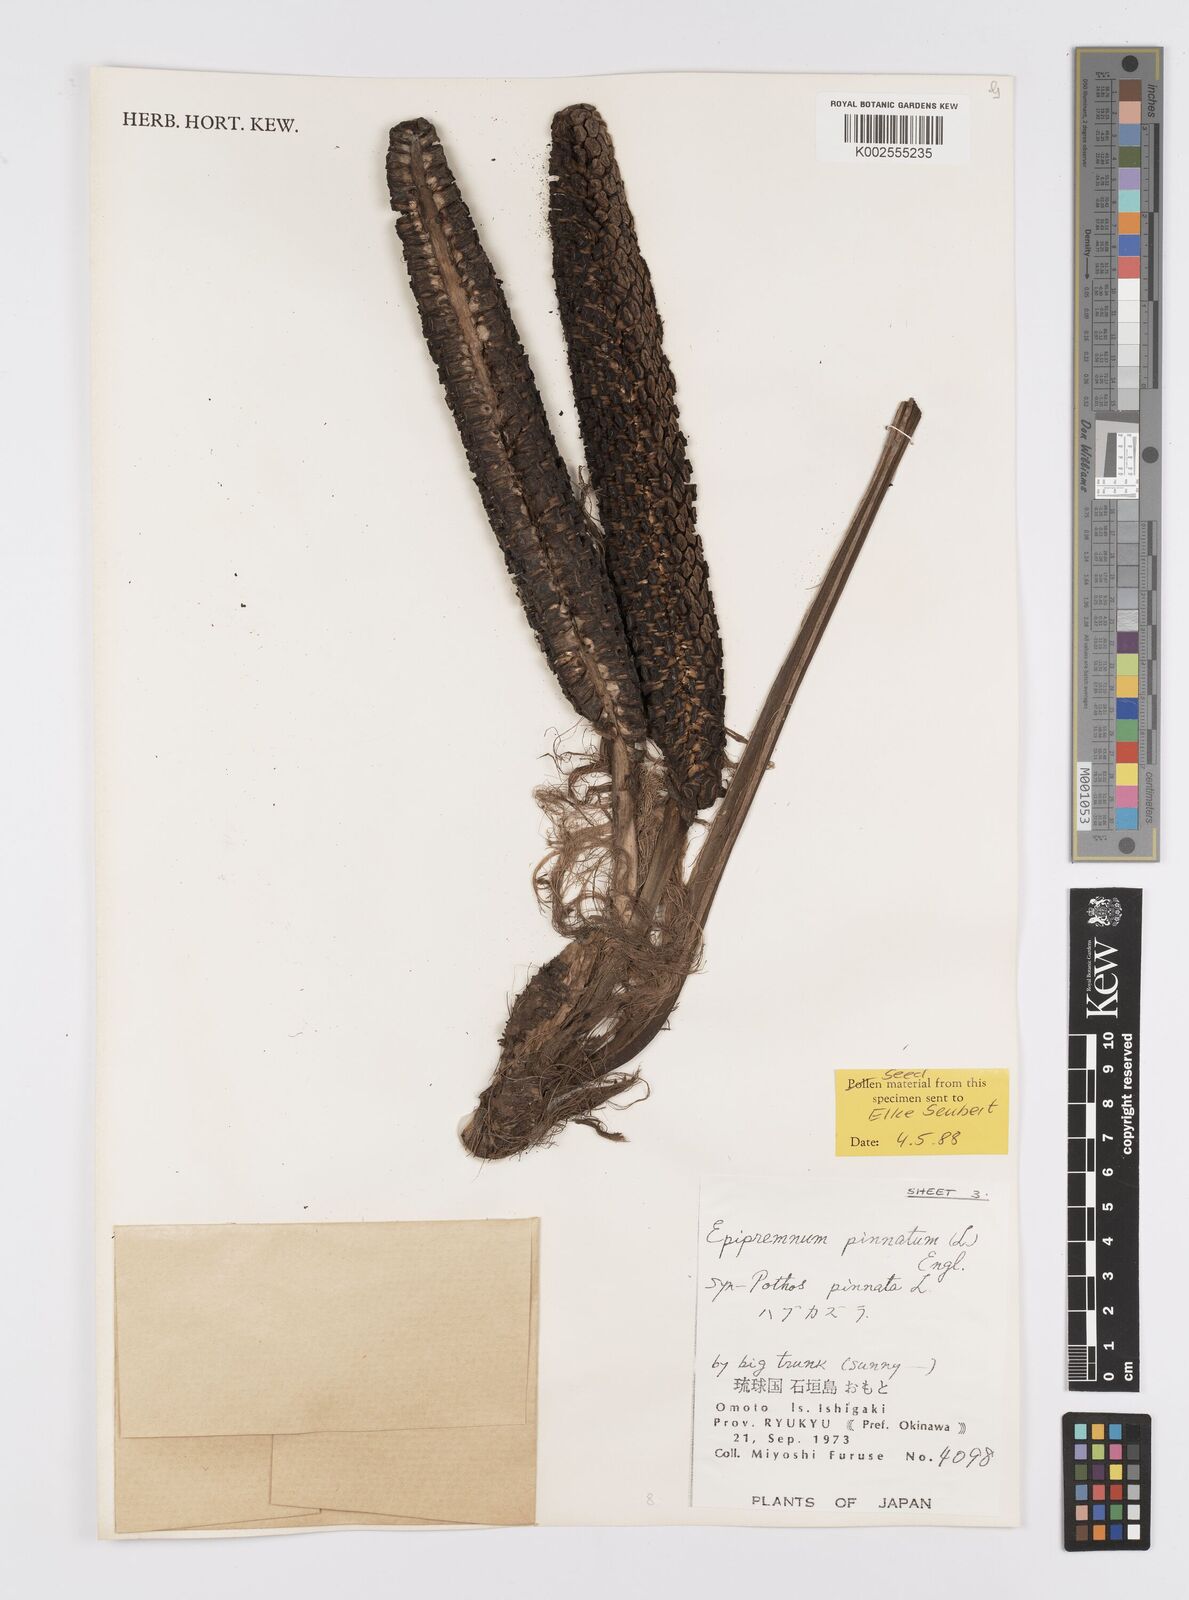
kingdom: Plantae
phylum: Tracheophyta
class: Liliopsida
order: Alismatales
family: Araceae
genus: Epipremnum
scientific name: Epipremnum pinnatum
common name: Centipede tongavine
